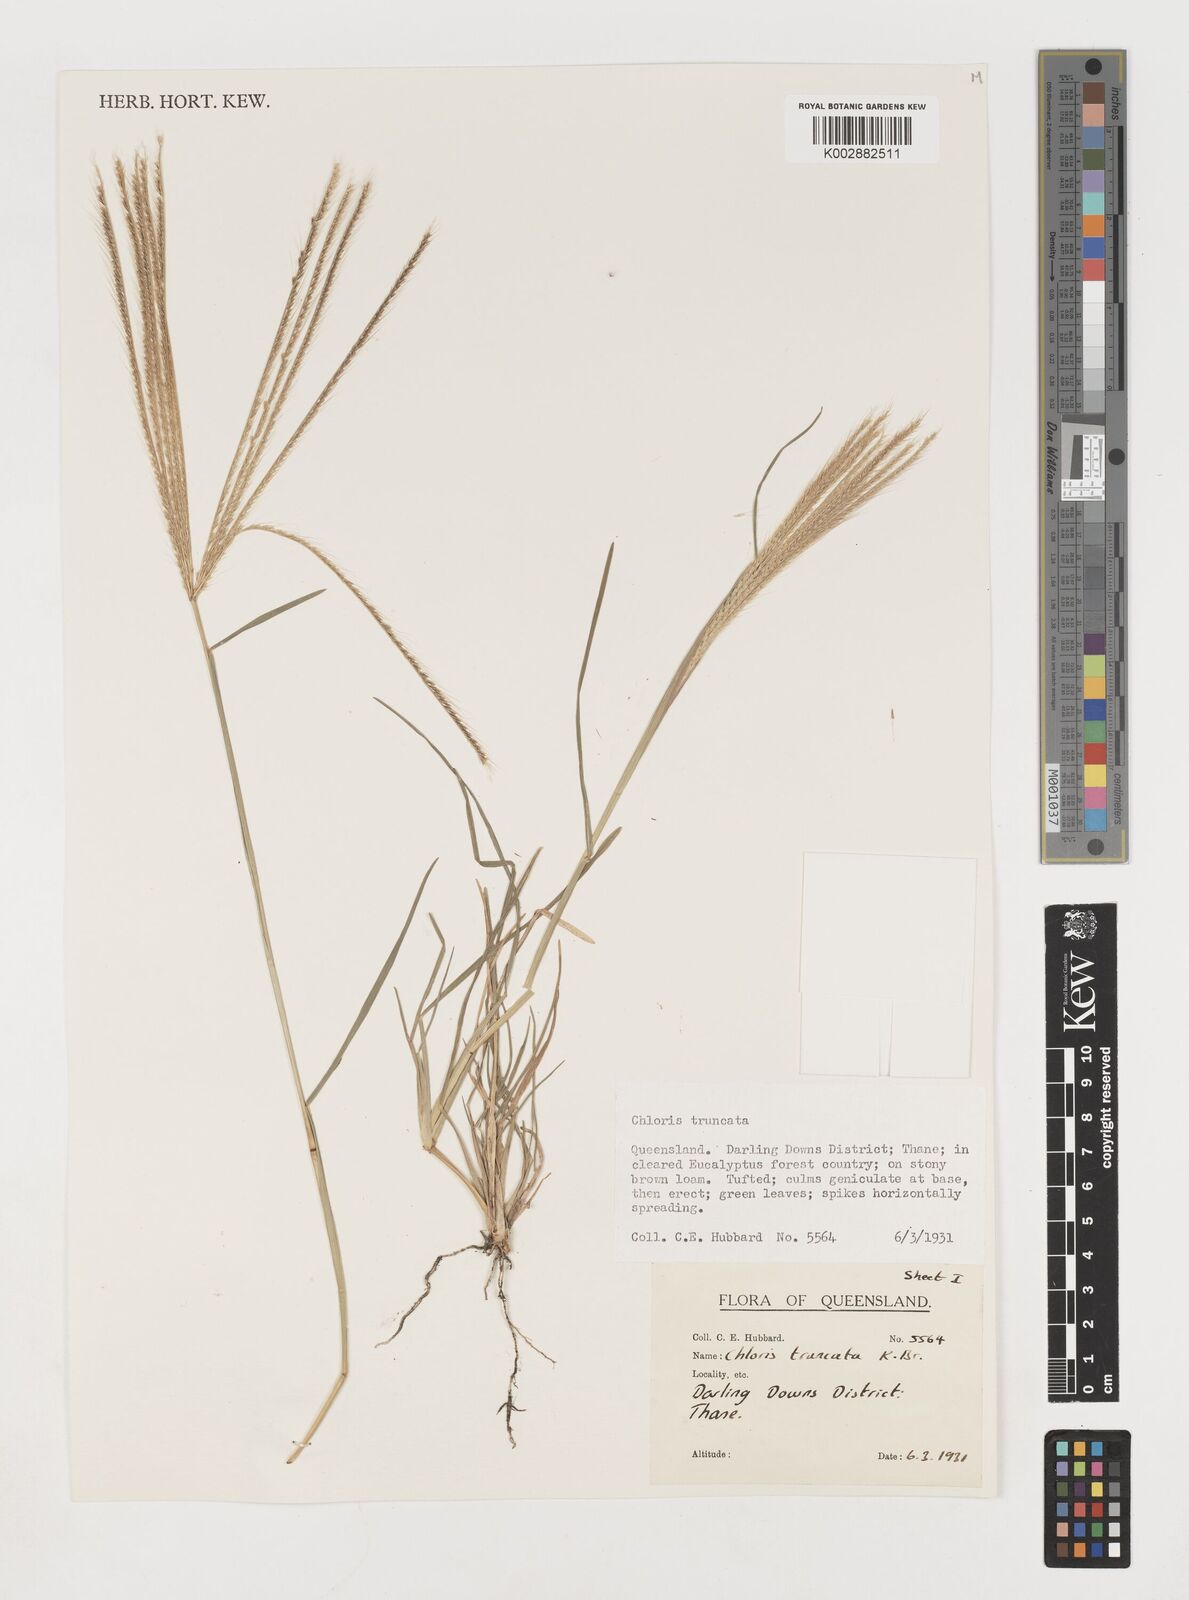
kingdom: Plantae
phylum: Tracheophyta
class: Liliopsida
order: Poales
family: Poaceae
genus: Chloris
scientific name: Chloris truncata
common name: Windmill-grass
